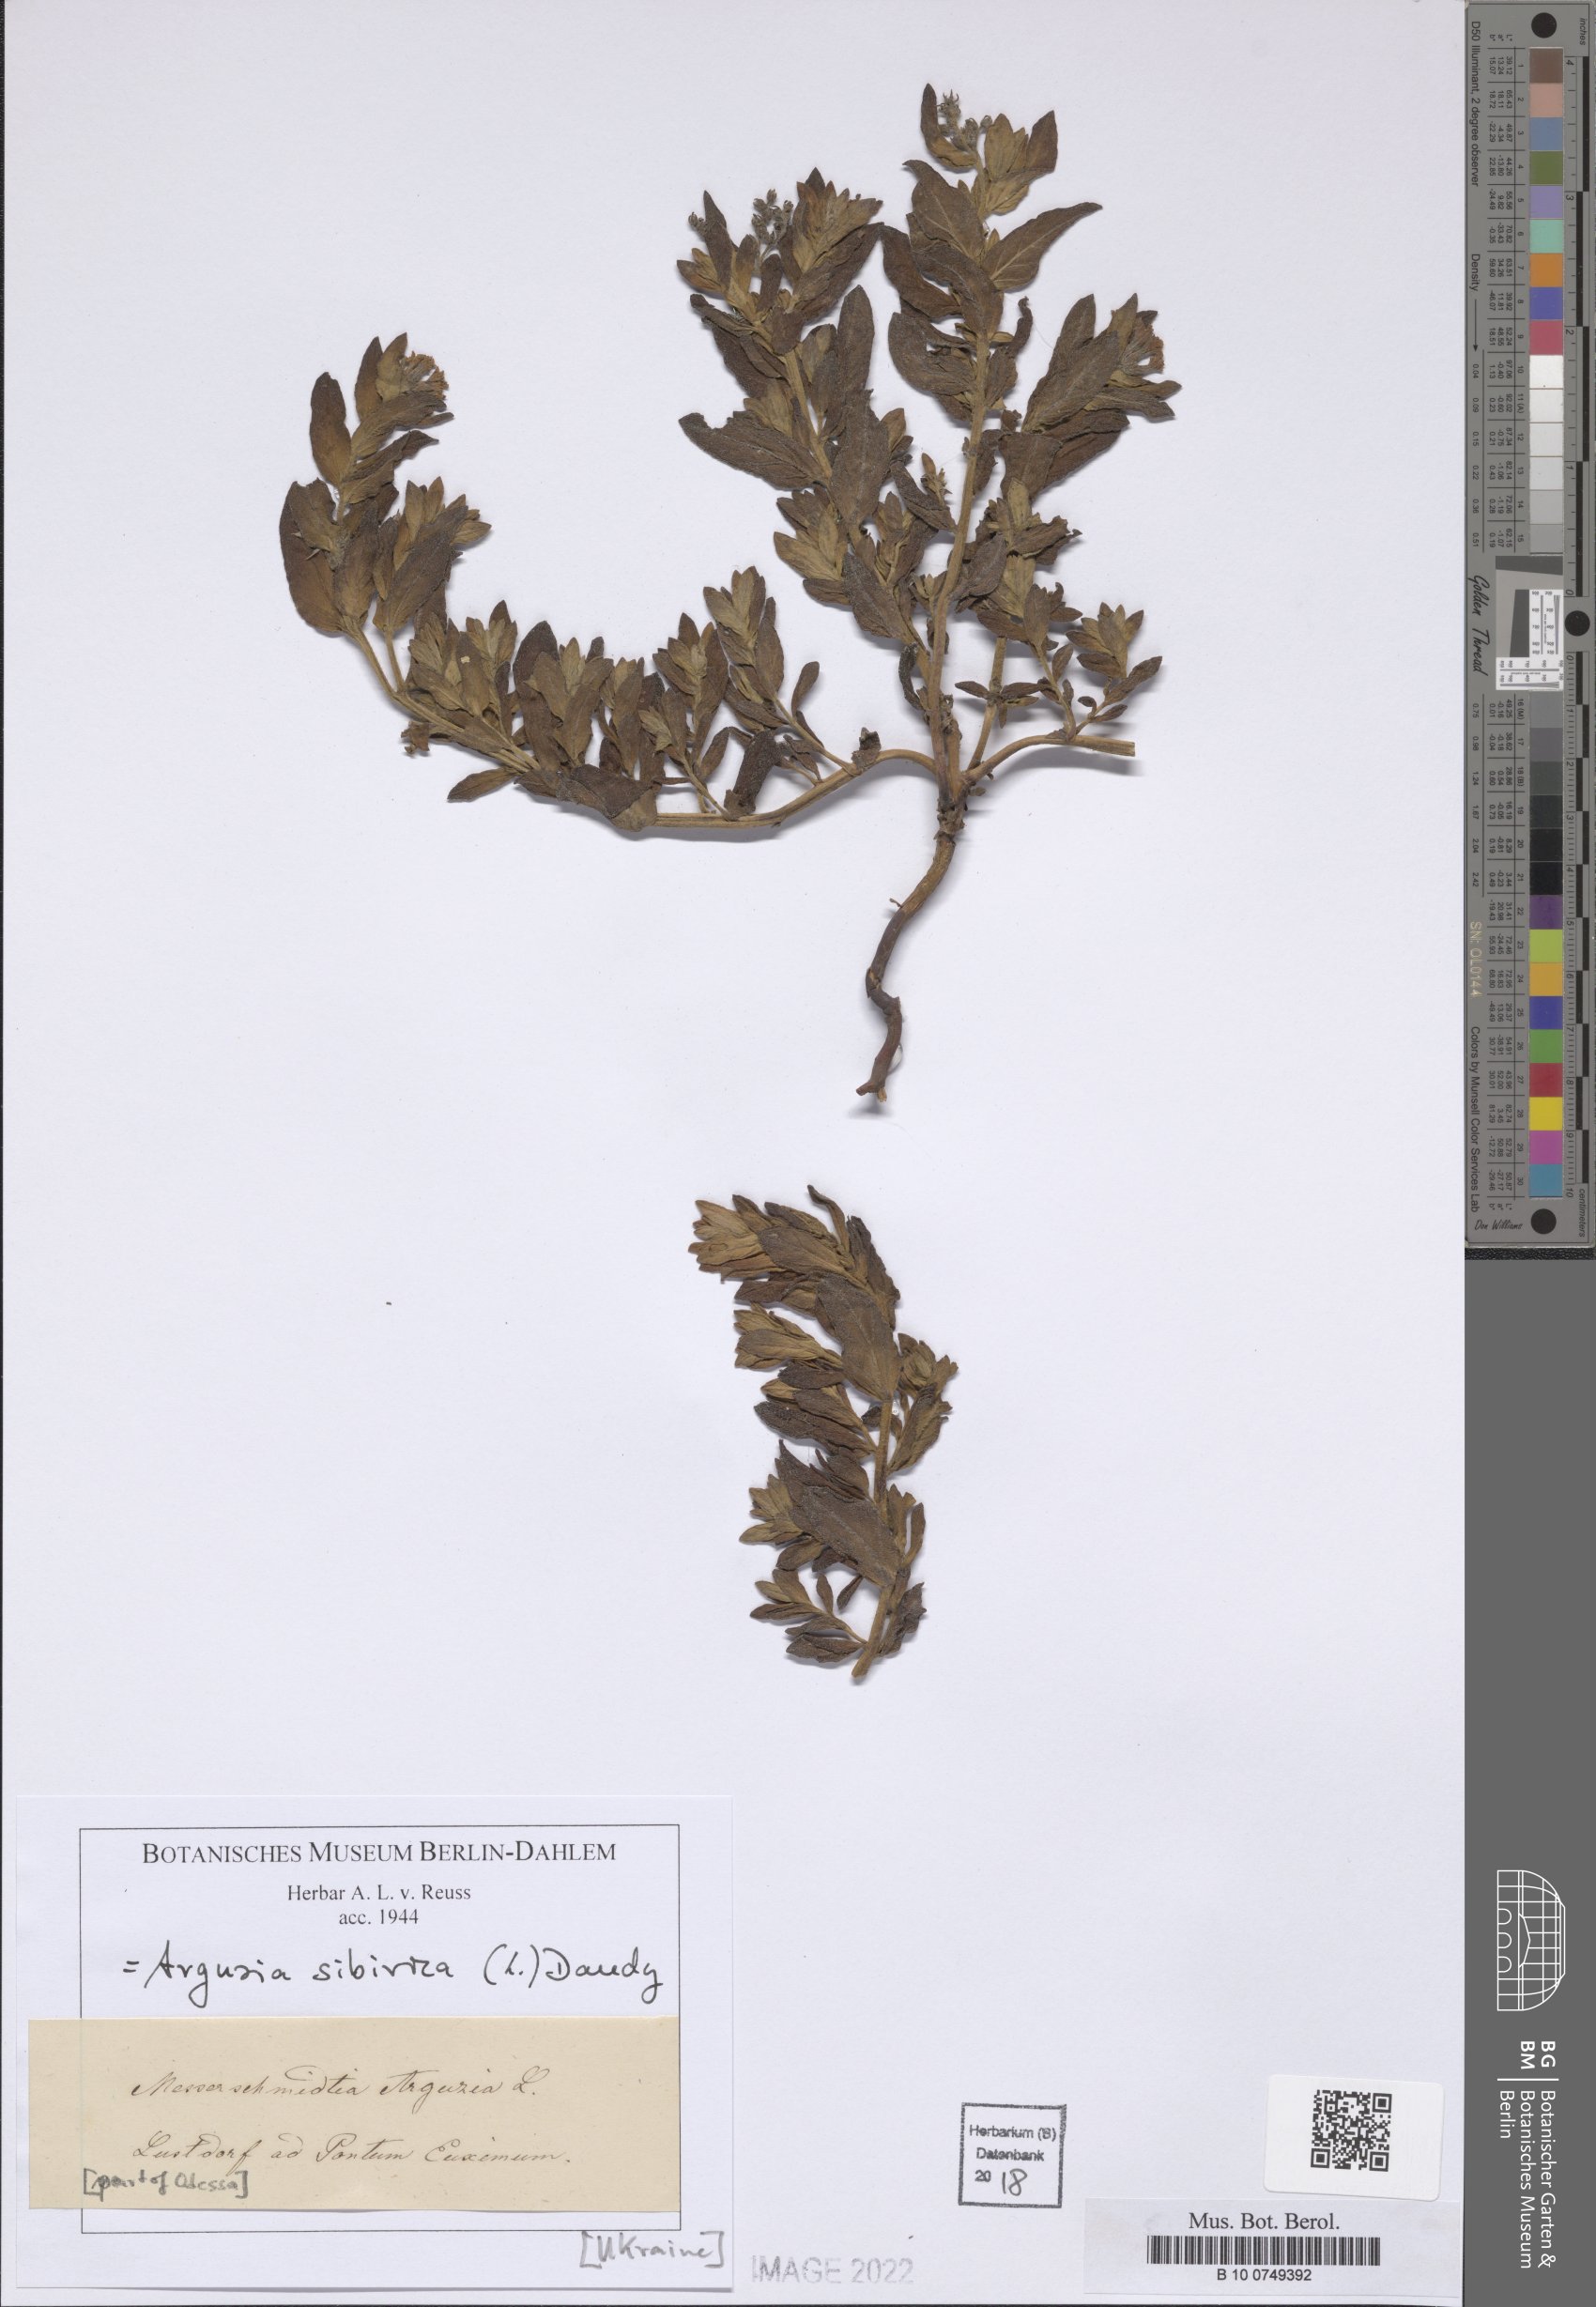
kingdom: Plantae
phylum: Tracheophyta
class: Magnoliopsida
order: Boraginales
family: Heliotropiaceae
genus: Tournefortia
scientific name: Tournefortia sibirica
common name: Siberian sea rosemary
